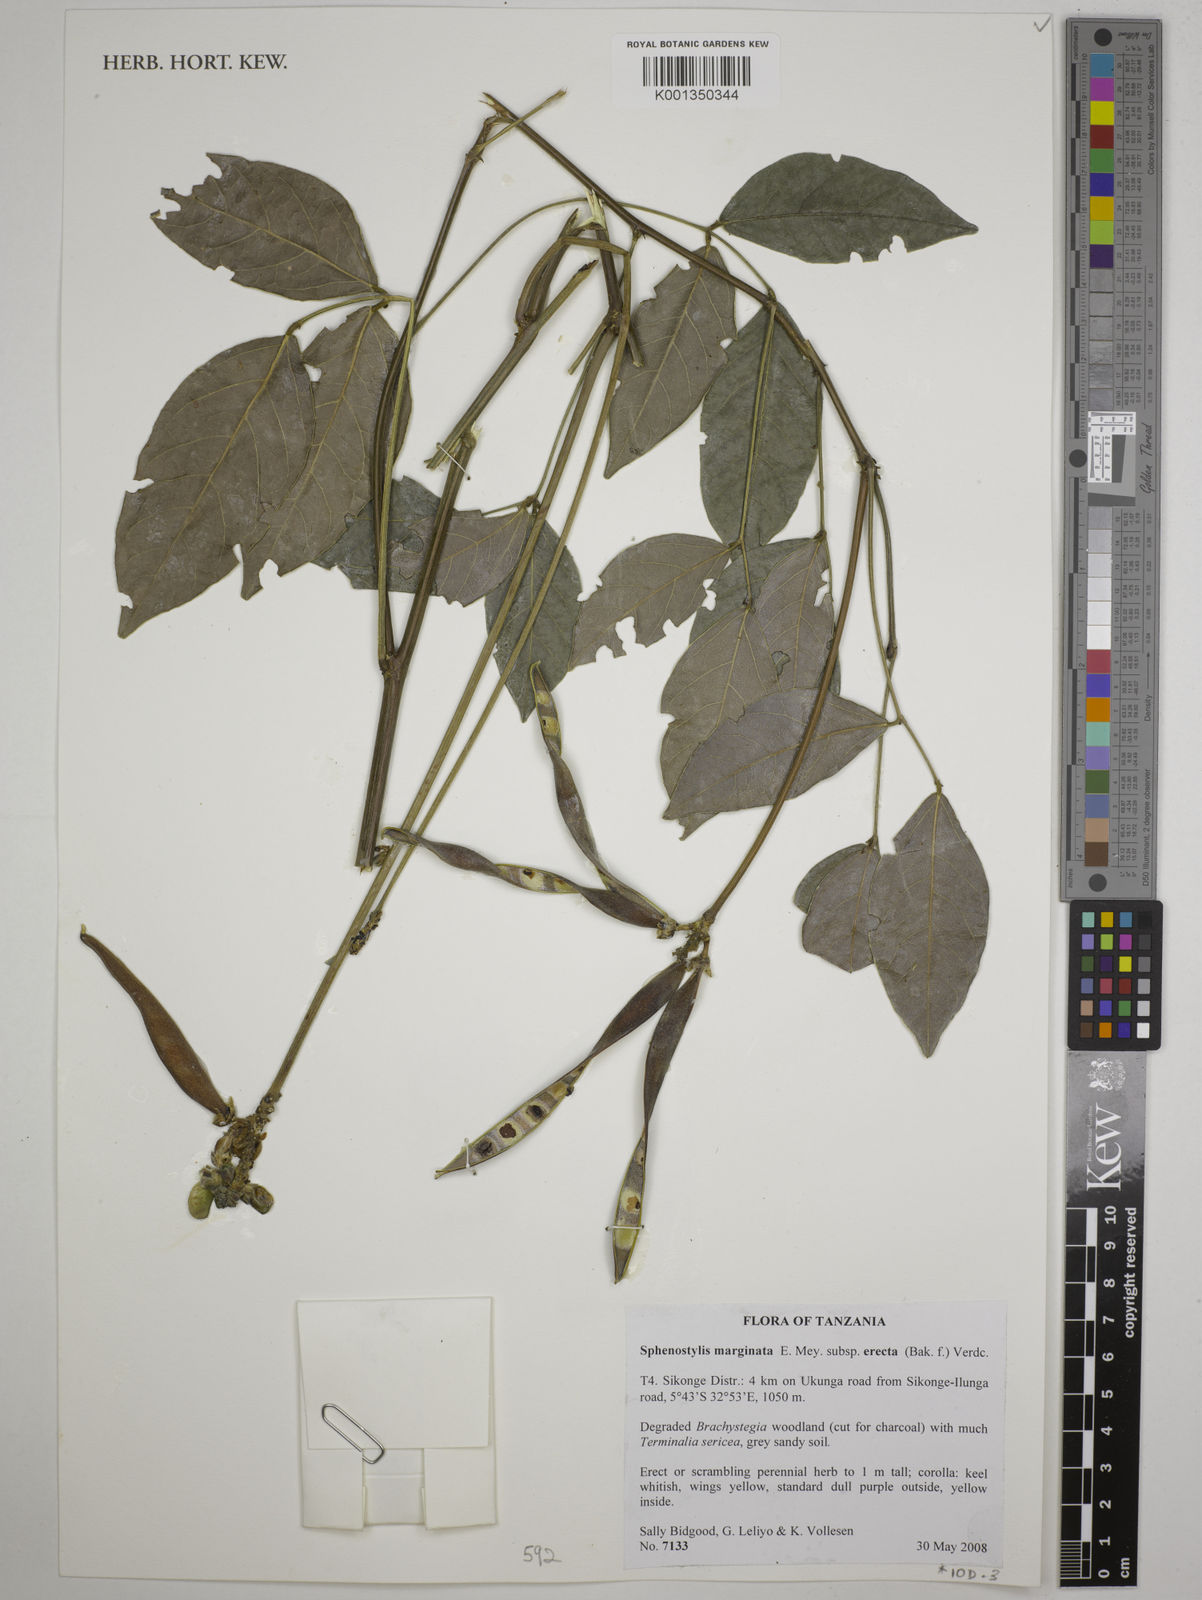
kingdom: Plantae
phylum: Tracheophyta
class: Magnoliopsida
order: Fabales
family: Fabaceae
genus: Sphenostylis
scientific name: Sphenostylis
